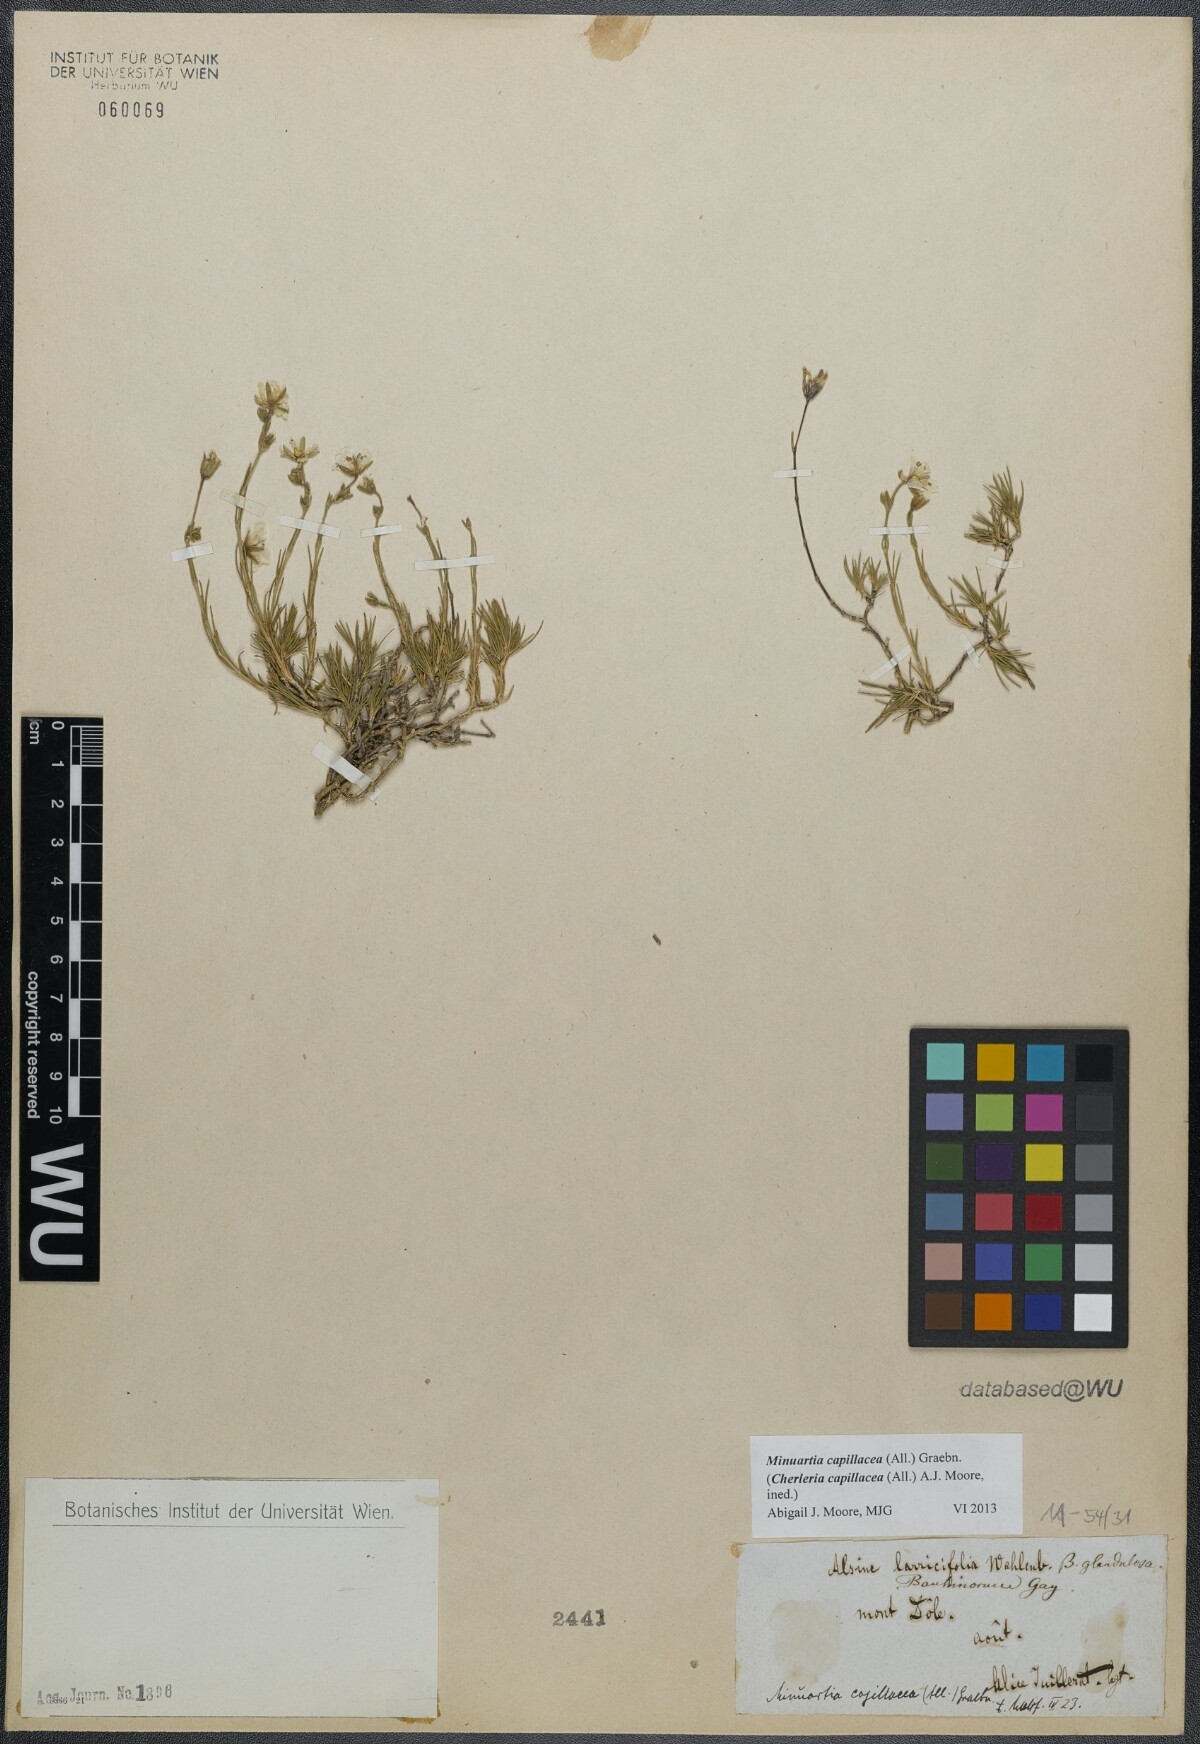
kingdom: Plantae
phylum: Tracheophyta
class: Magnoliopsida
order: Caryophyllales
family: Caryophyllaceae
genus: Cherleria
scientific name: Cherleria capillacea
